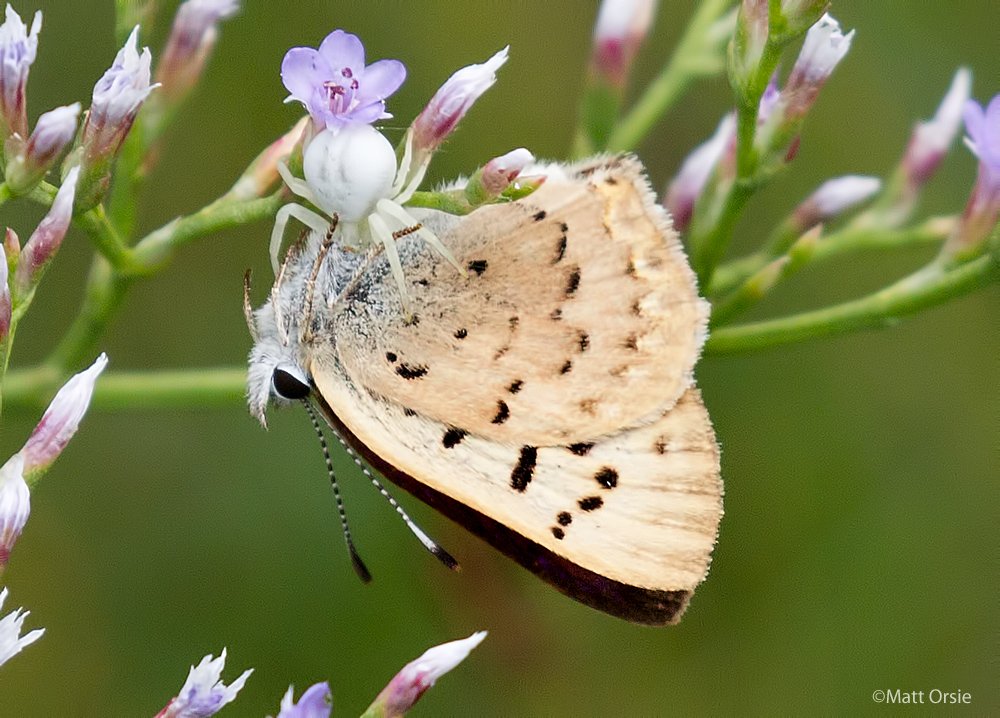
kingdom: Animalia
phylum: Arthropoda
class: Insecta
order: Lepidoptera
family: Lycaenidae
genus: Epidemia
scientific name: Epidemia dorcas
